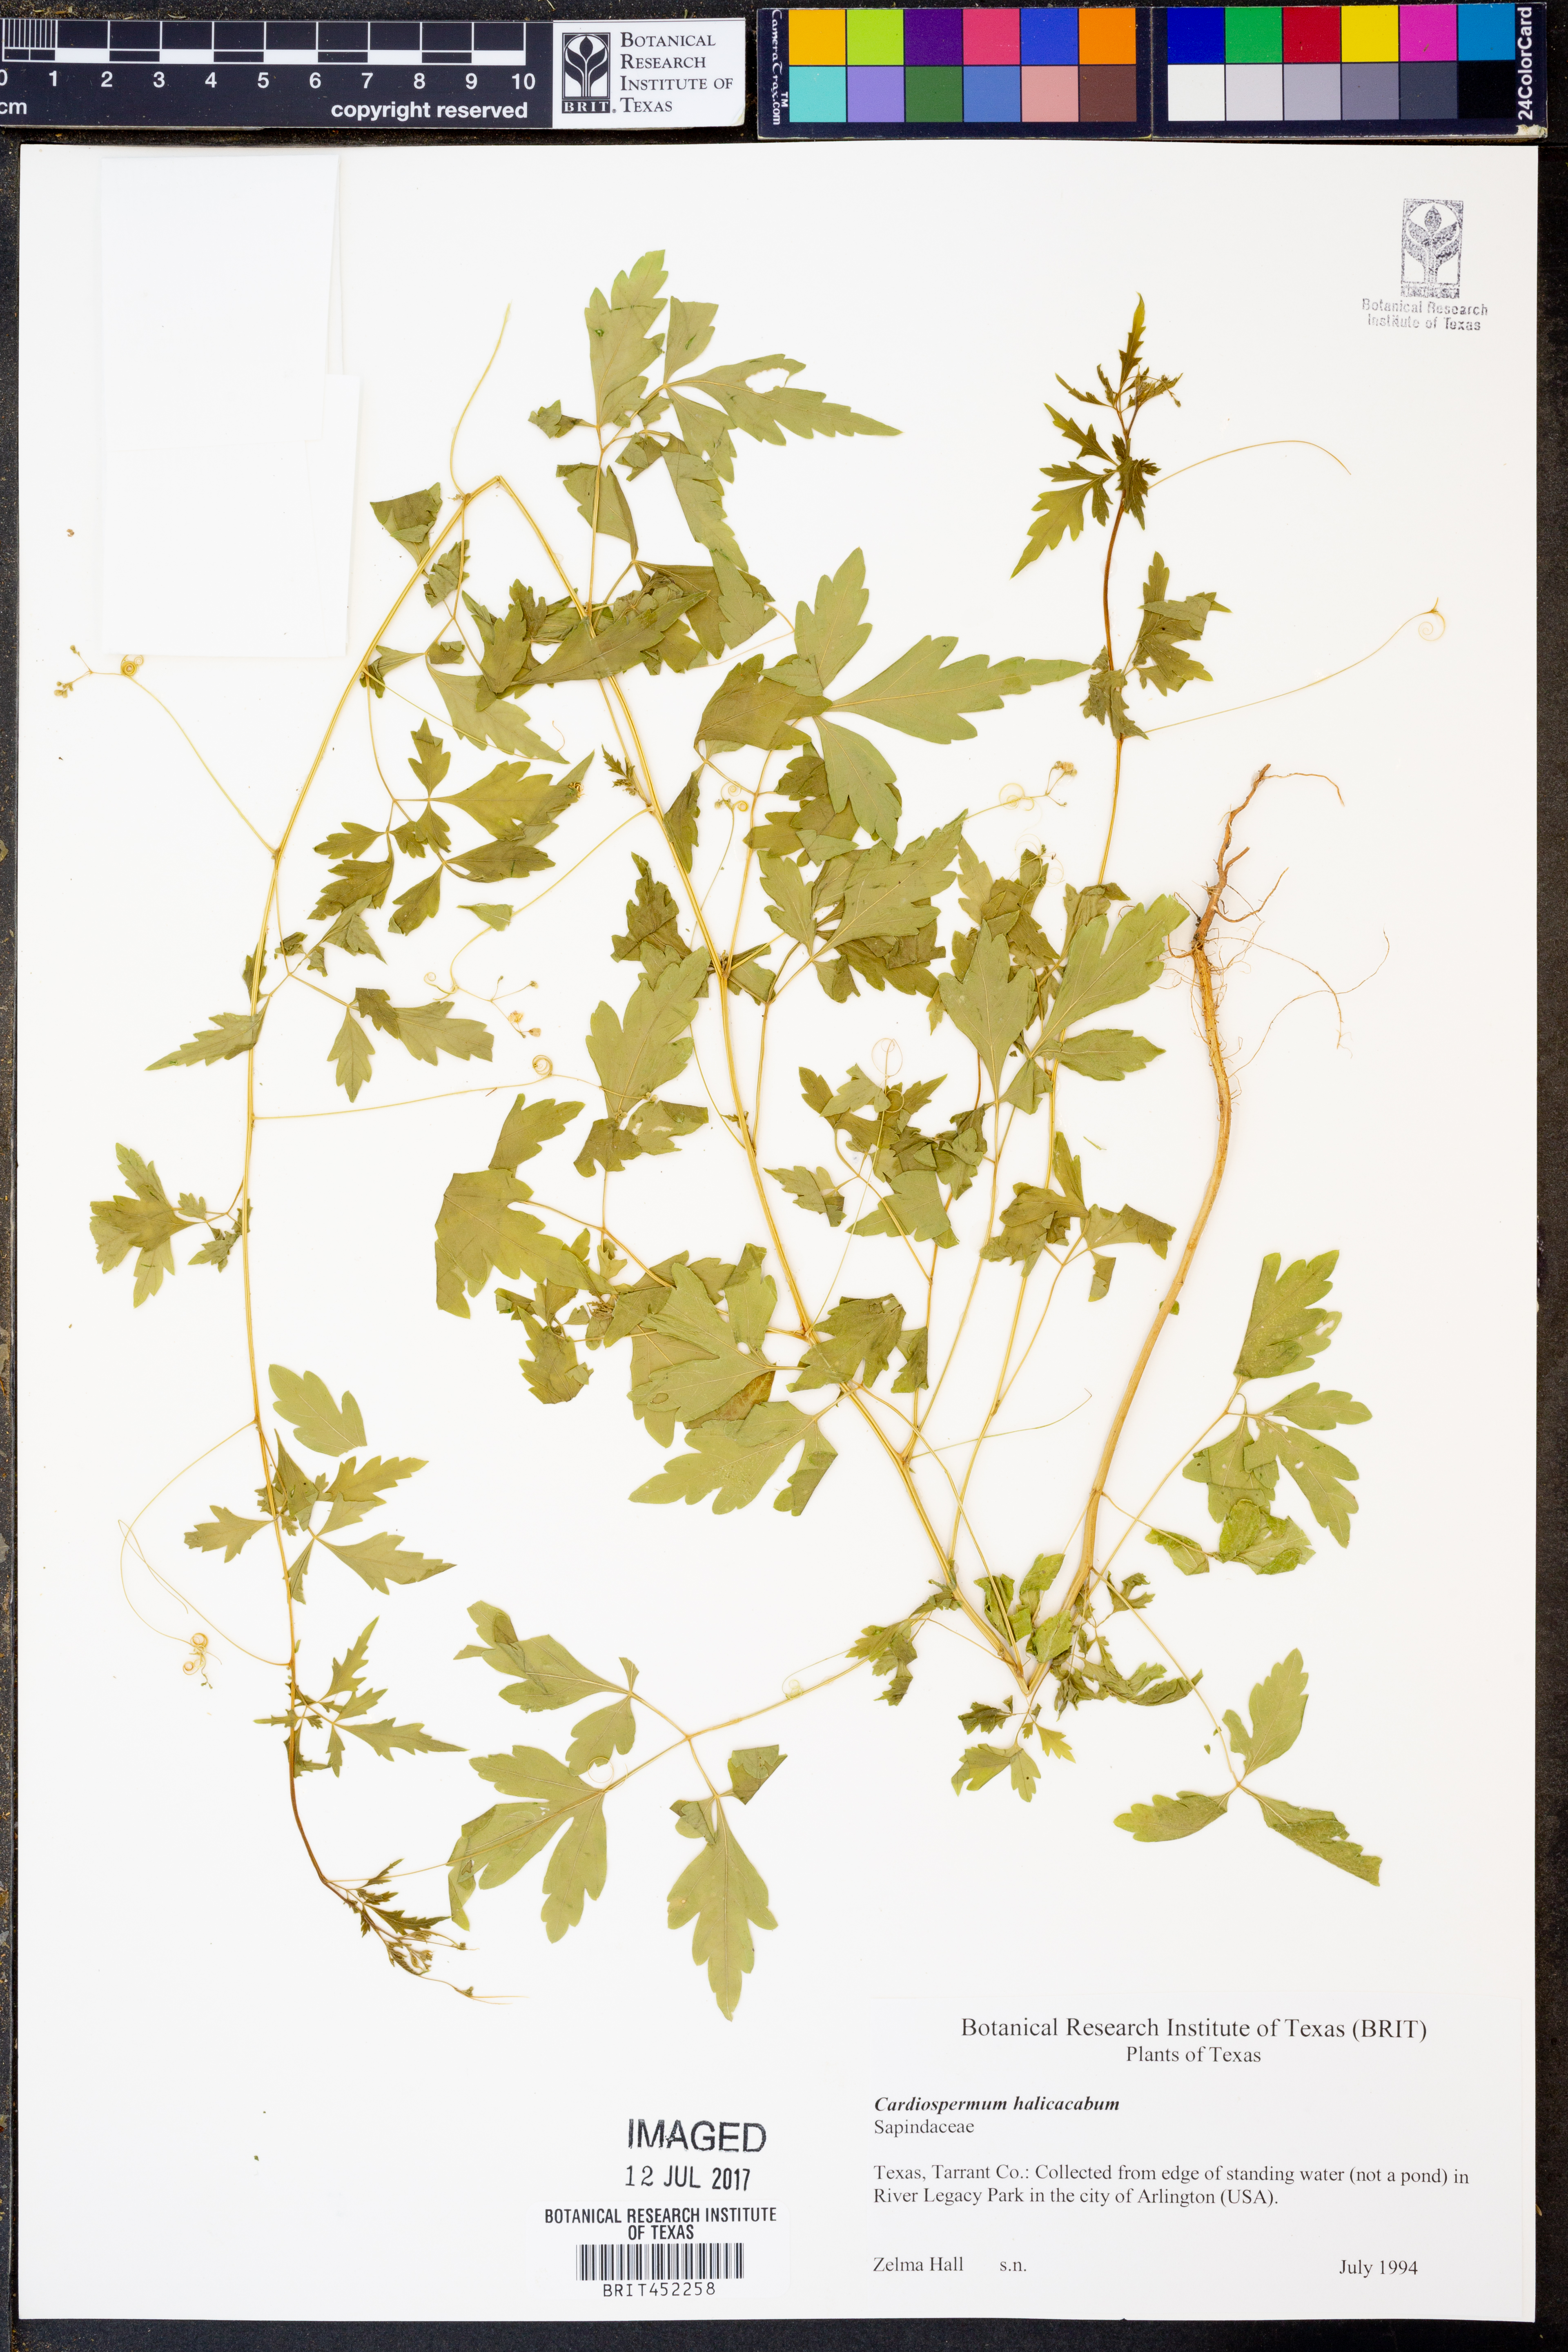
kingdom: Plantae
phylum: Tracheophyta
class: Magnoliopsida
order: Sapindales
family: Sapindaceae
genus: Cardiospermum
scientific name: Cardiospermum halicacabum
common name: Balloon vine
